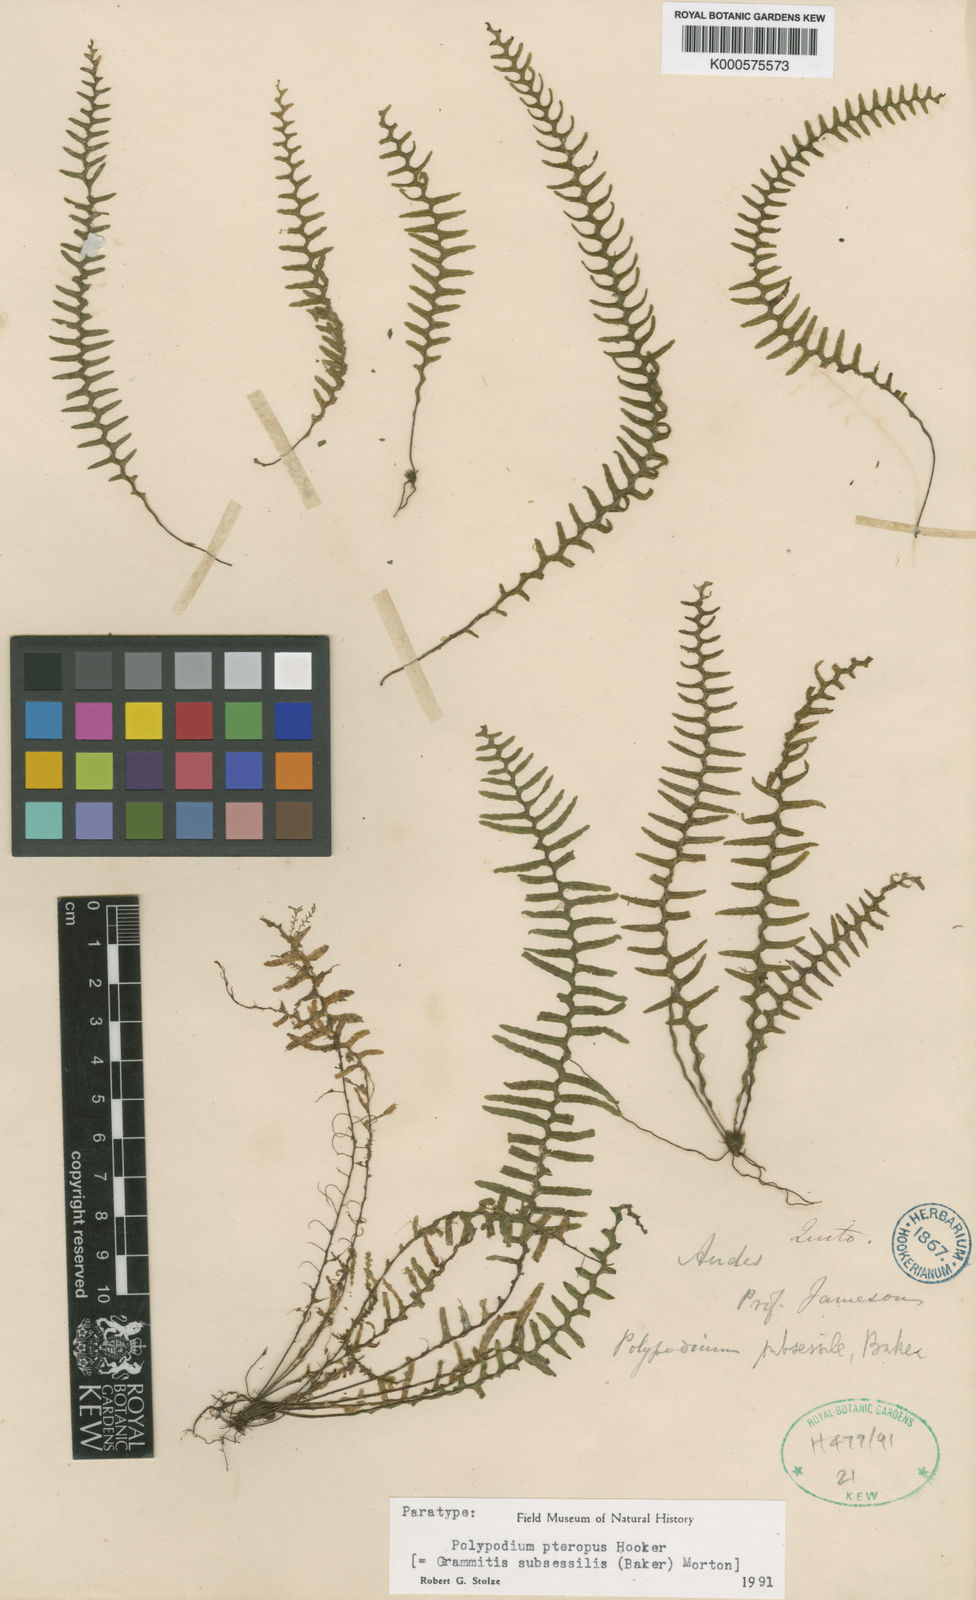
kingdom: Plantae
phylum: Tracheophyta
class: Polypodiopsida
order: Polypodiales
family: Polypodiaceae
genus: Lellingeria
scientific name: Lellingeria subsessilis
